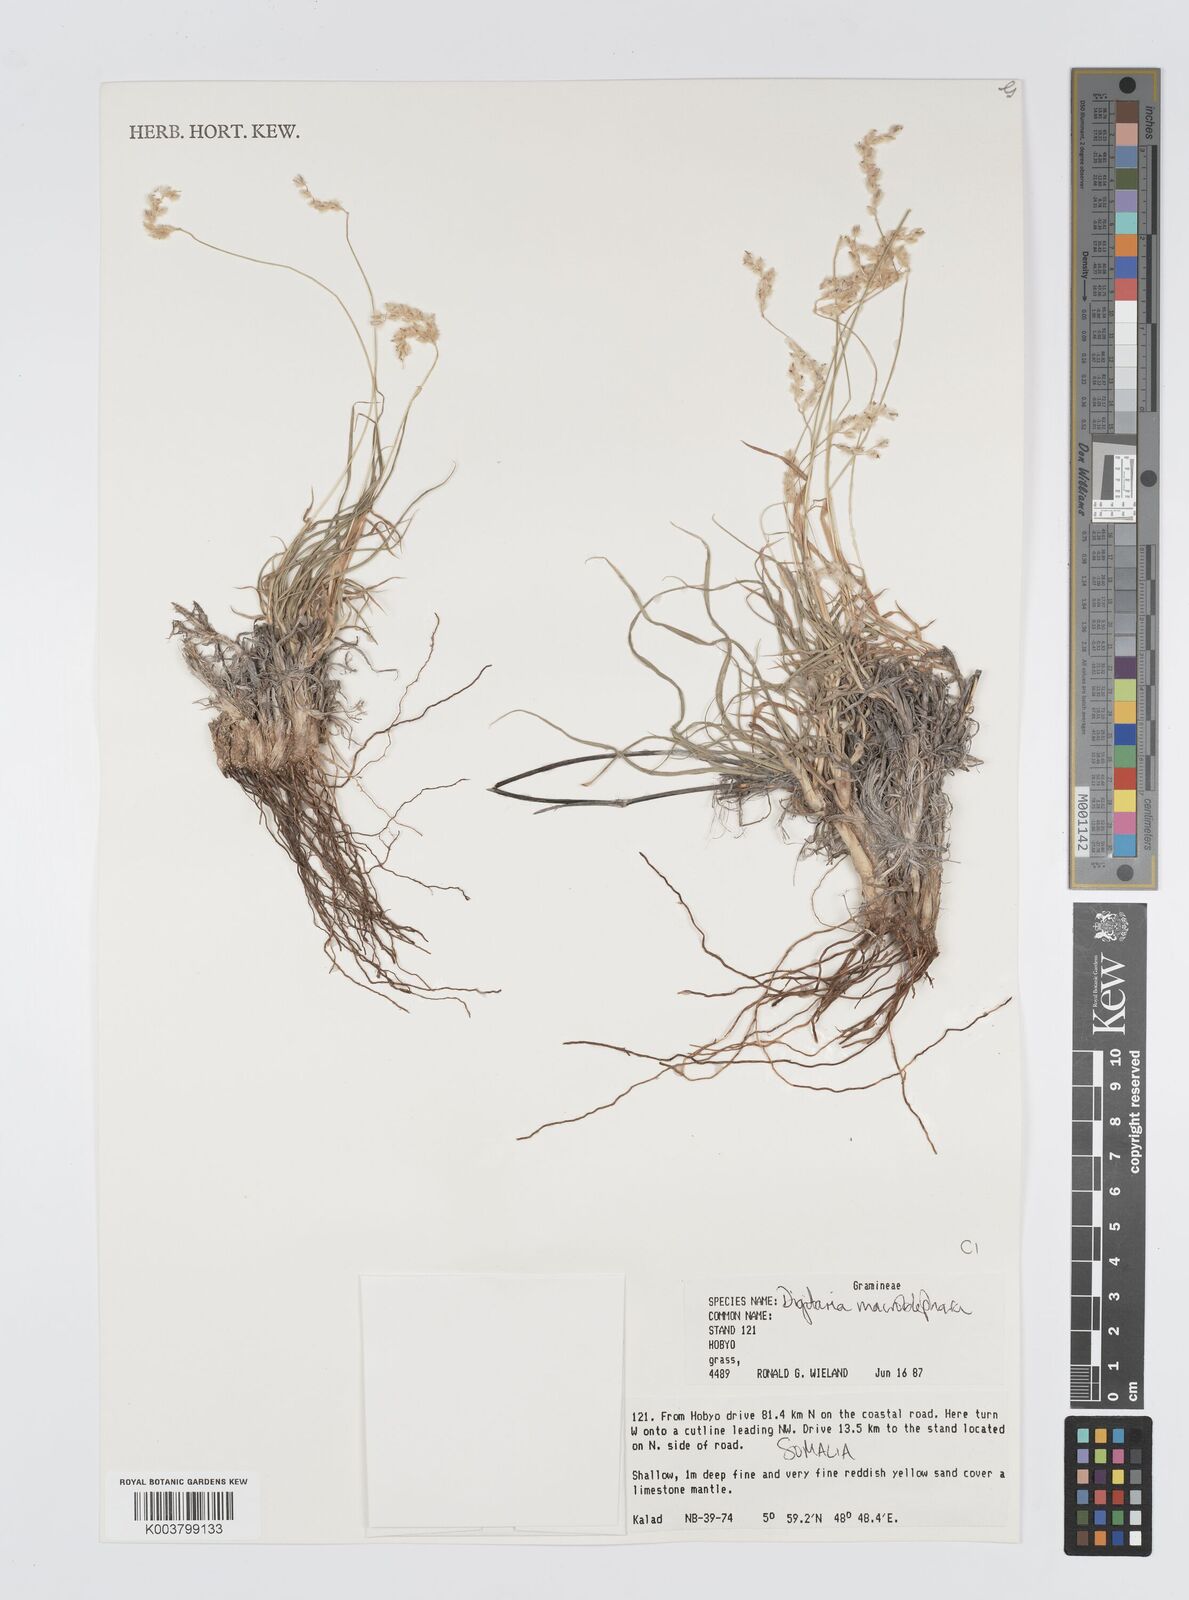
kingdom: Plantae
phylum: Tracheophyta
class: Liliopsida
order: Poales
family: Poaceae
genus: Digitaria
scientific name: Digitaria macroblephara
